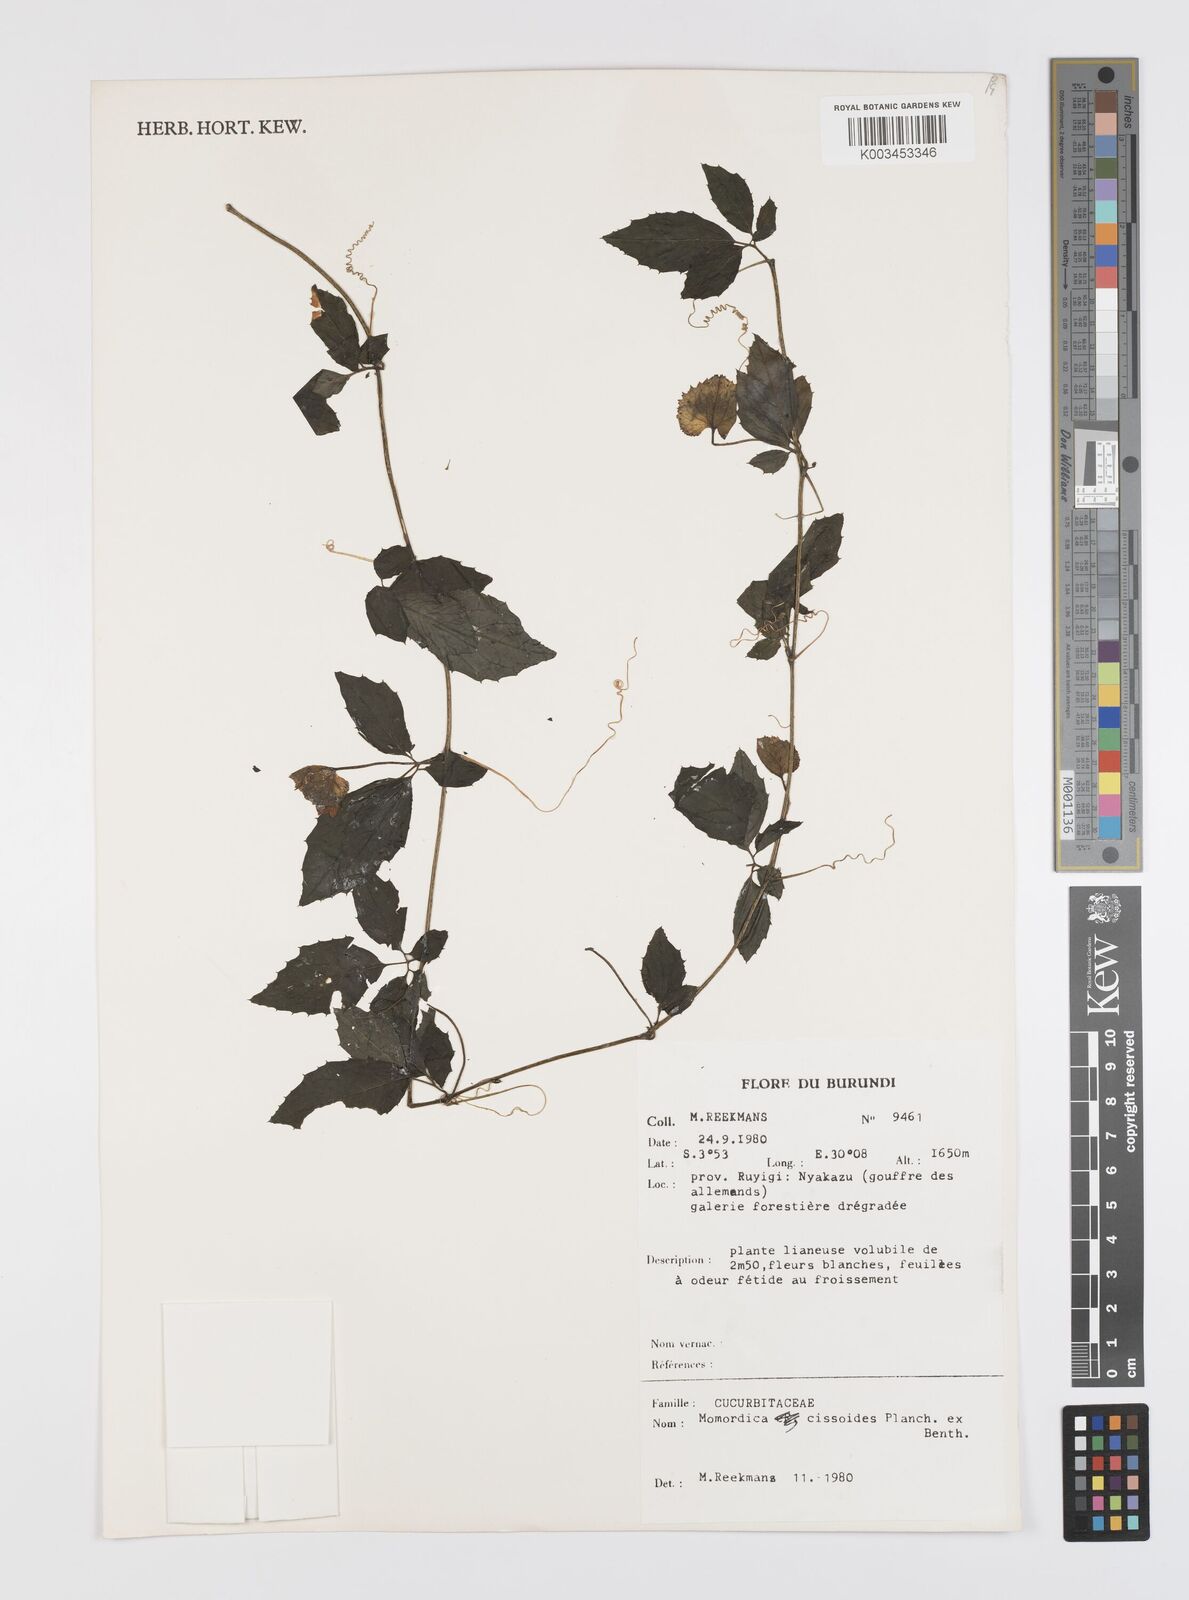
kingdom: Plantae
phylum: Tracheophyta
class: Magnoliopsida
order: Cucurbitales
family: Cucurbitaceae
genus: Momordica
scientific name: Momordica cissoides
